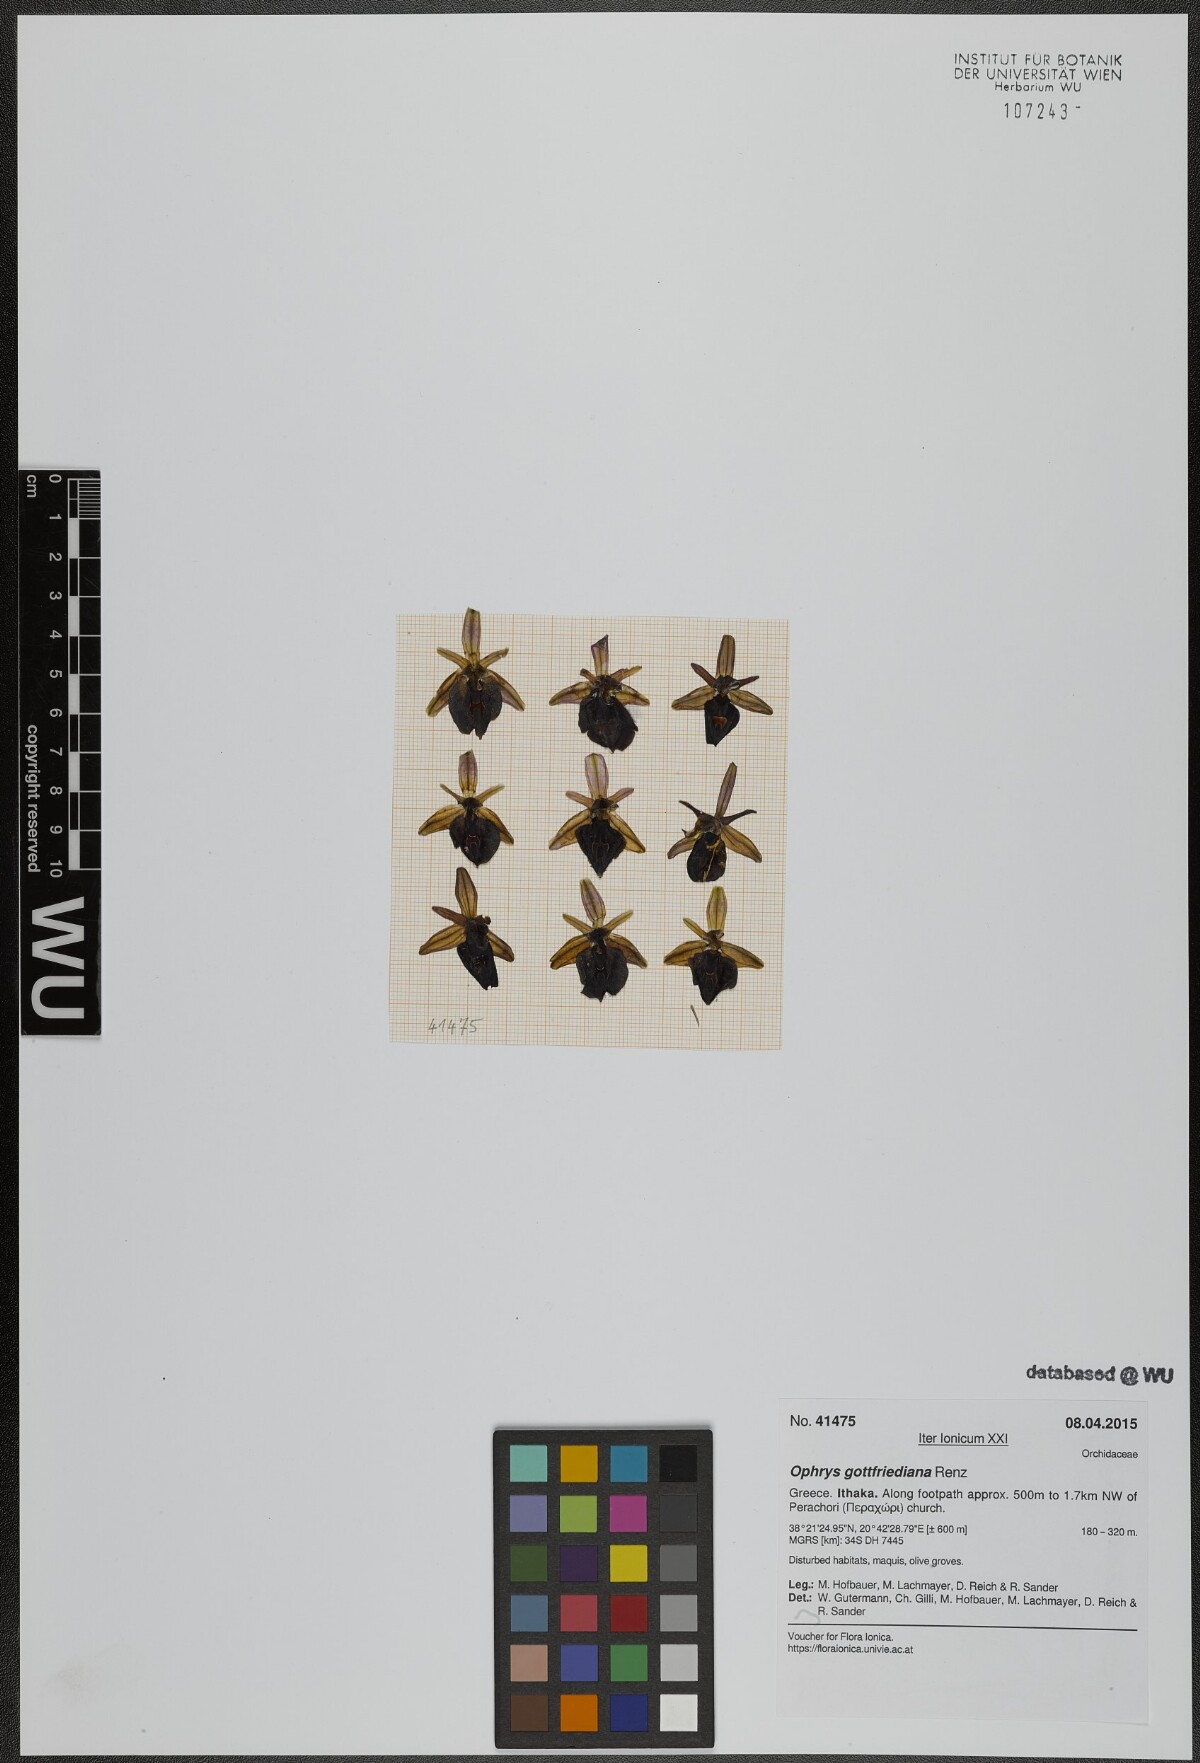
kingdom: Plantae
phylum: Tracheophyta
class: Liliopsida
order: Asparagales
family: Orchidaceae
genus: Ophrys
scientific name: Ophrys ferrum-equinum
